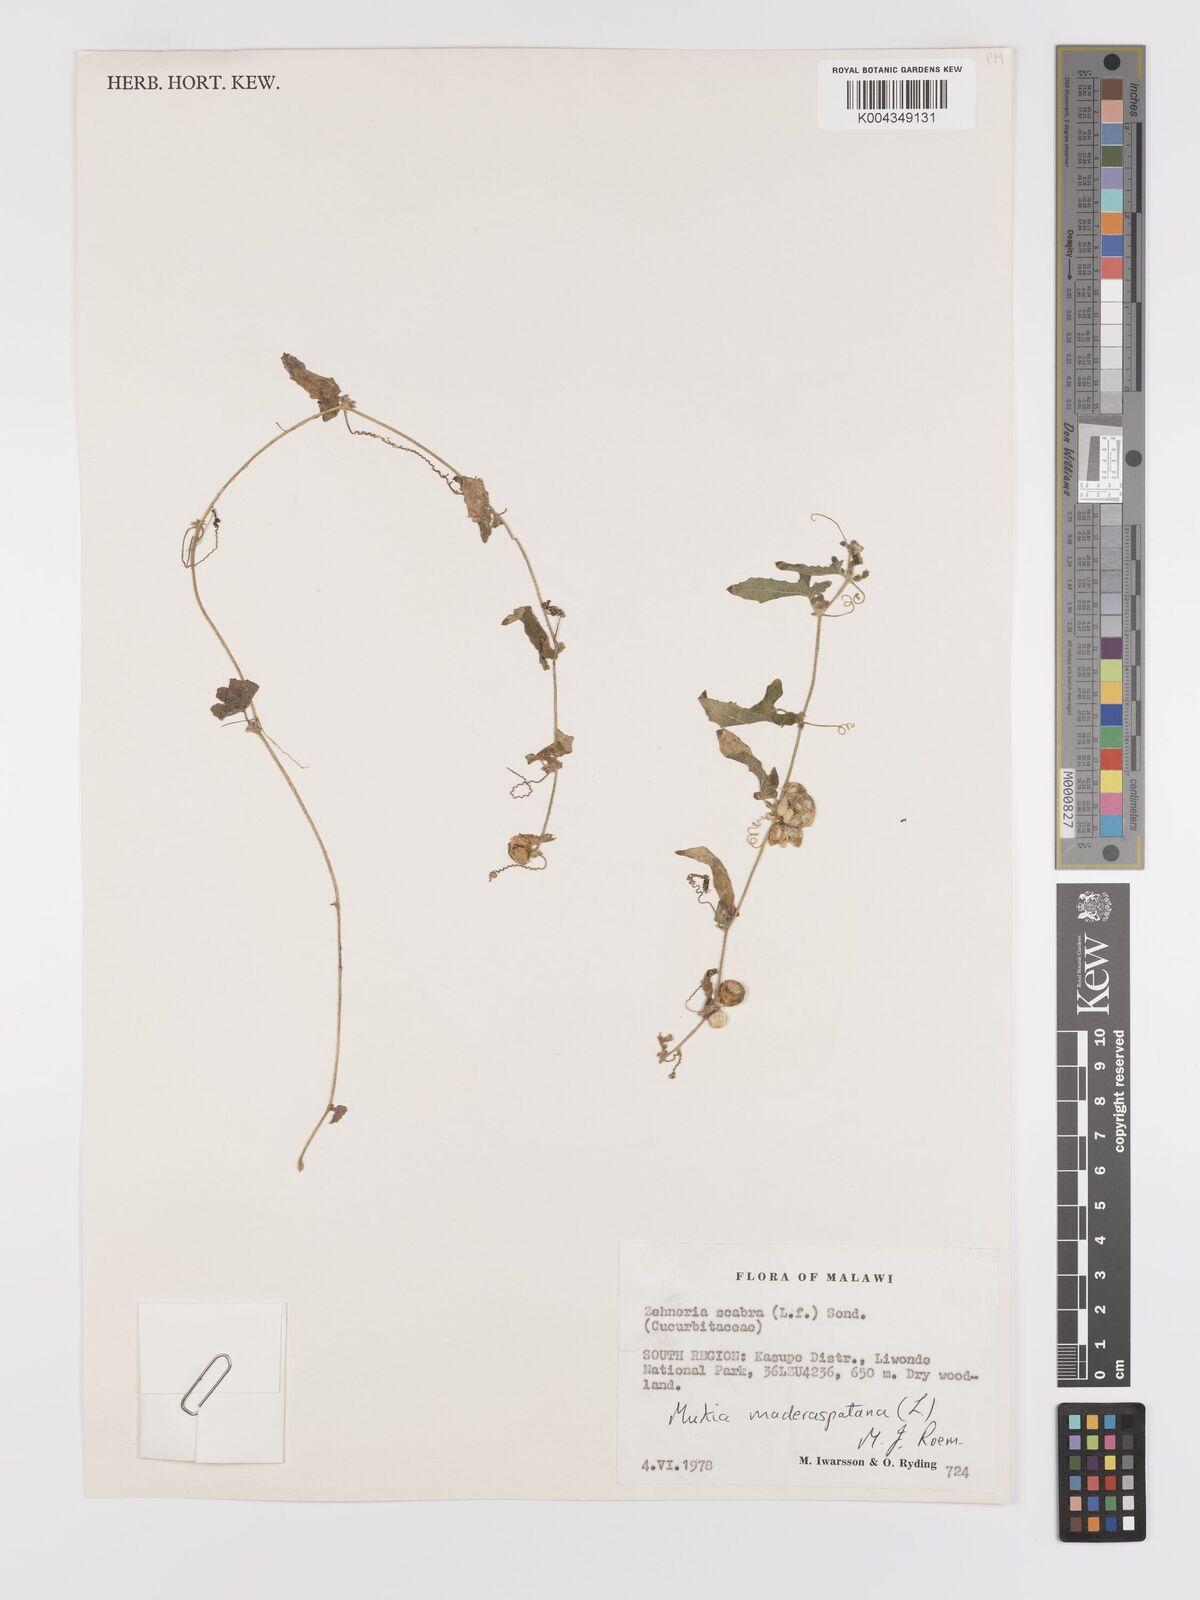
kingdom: Plantae
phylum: Tracheophyta
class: Magnoliopsida
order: Cucurbitales
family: Cucurbitaceae
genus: Cucumis
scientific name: Cucumis maderaspatanus
